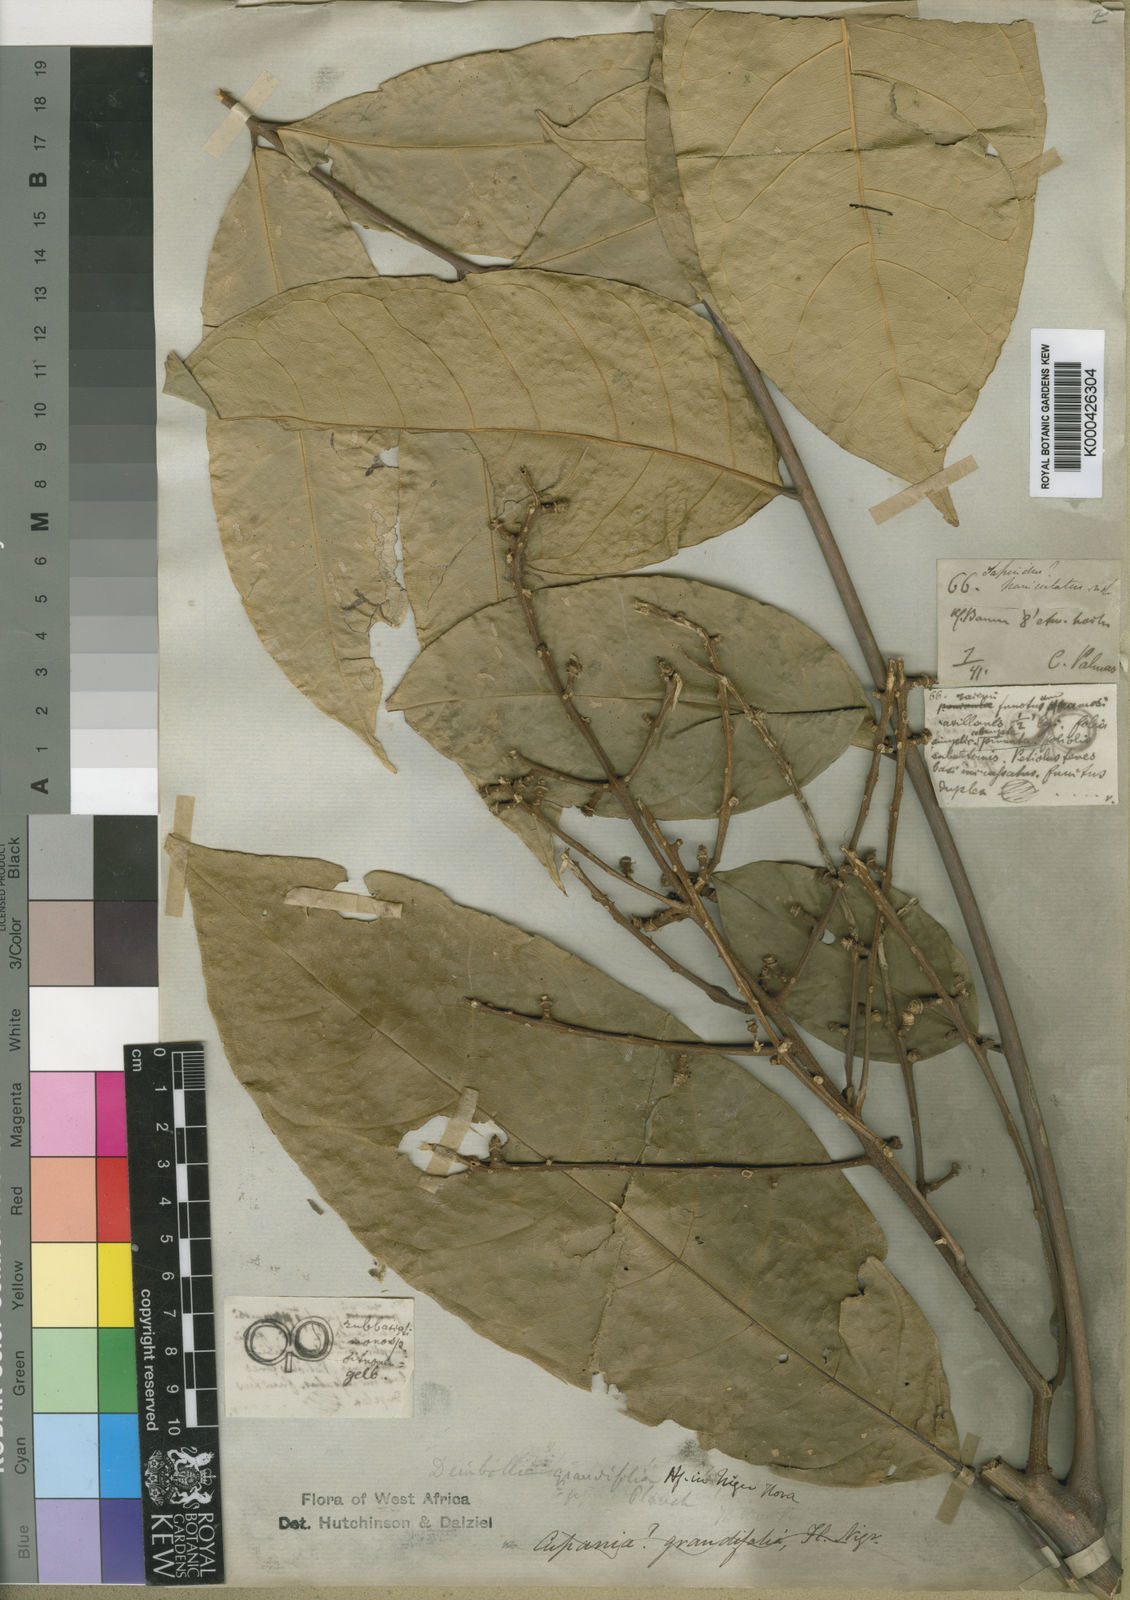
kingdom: Plantae
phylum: Tracheophyta
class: Magnoliopsida
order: Sapindales
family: Sapindaceae
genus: Deinbollia
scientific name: Deinbollia grandifolia
